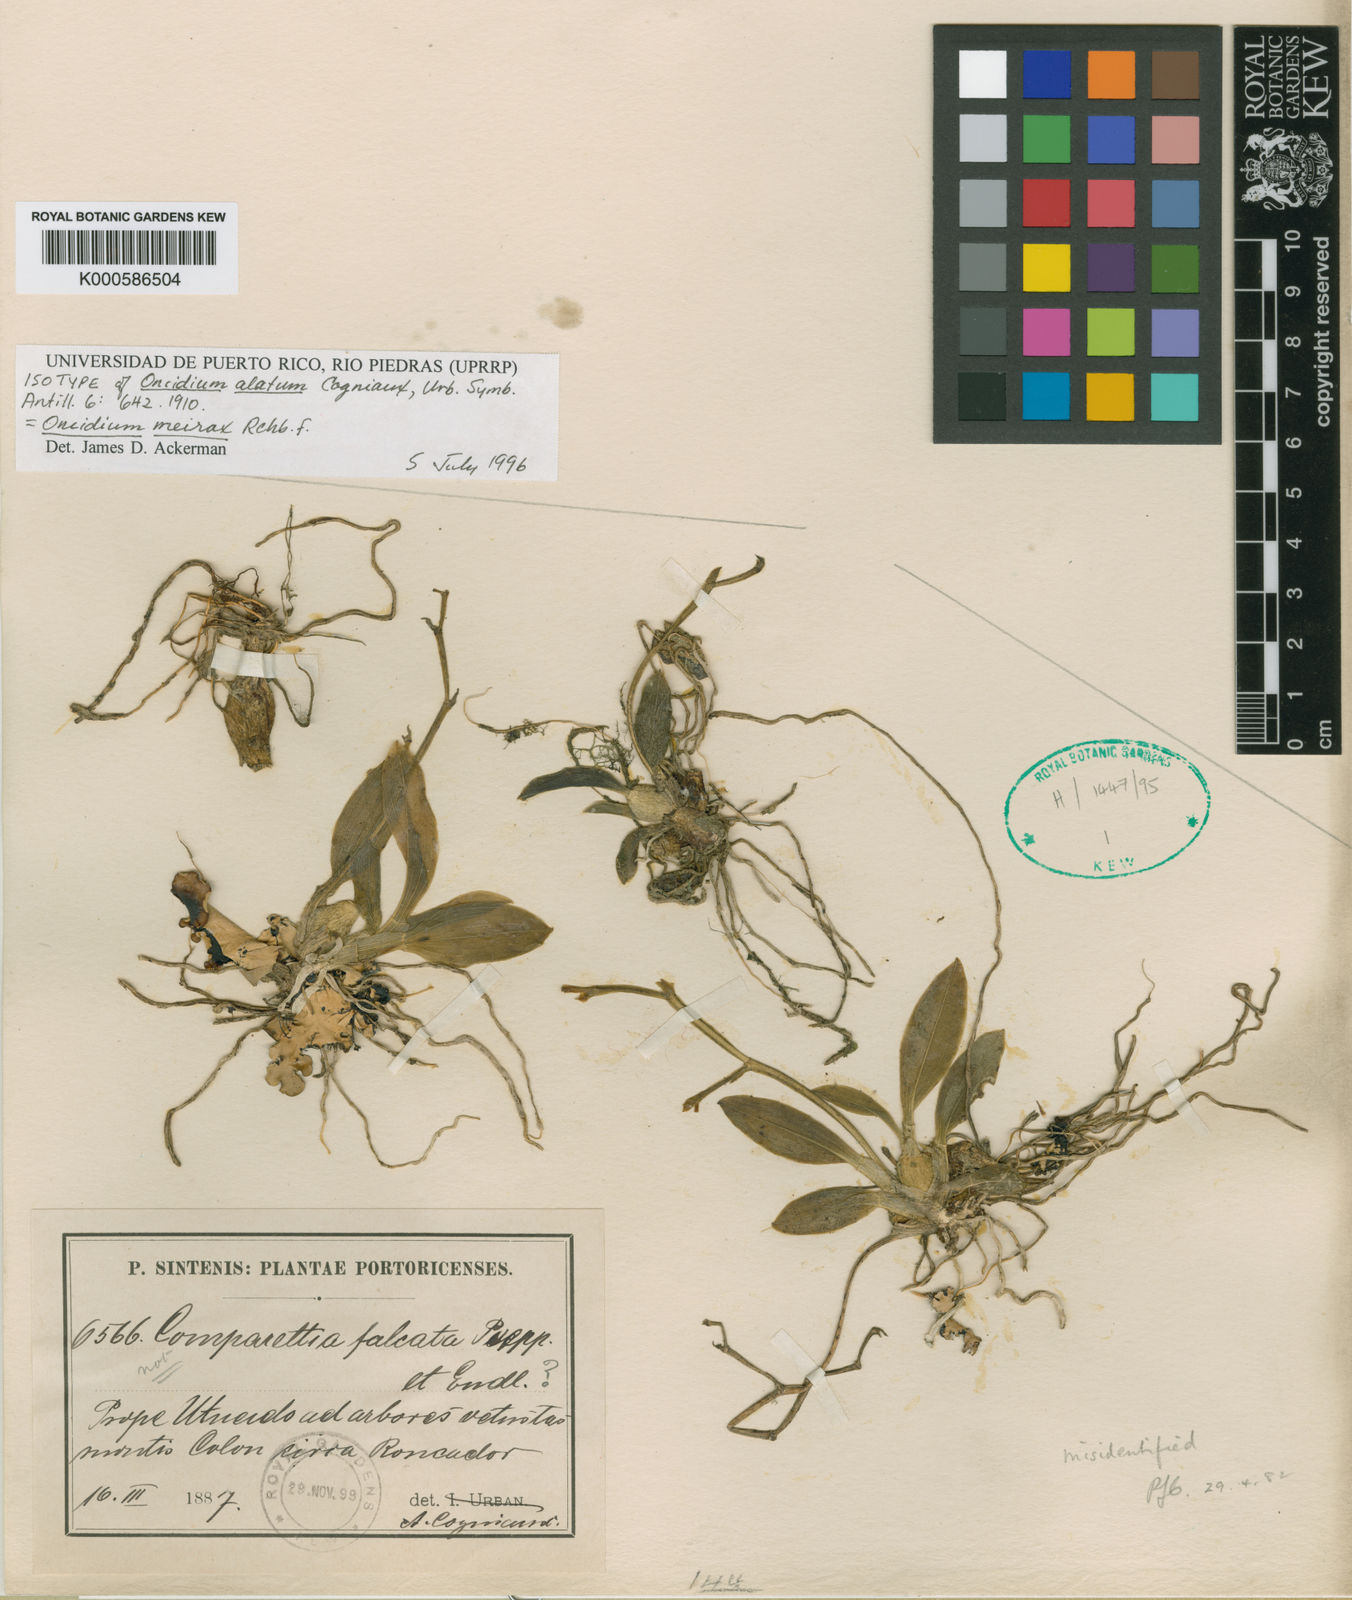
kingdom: Plantae
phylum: Tracheophyta
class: Liliopsida
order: Asparagales
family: Orchidaceae
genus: Cyrtochilum
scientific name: Cyrtochilum meirax
